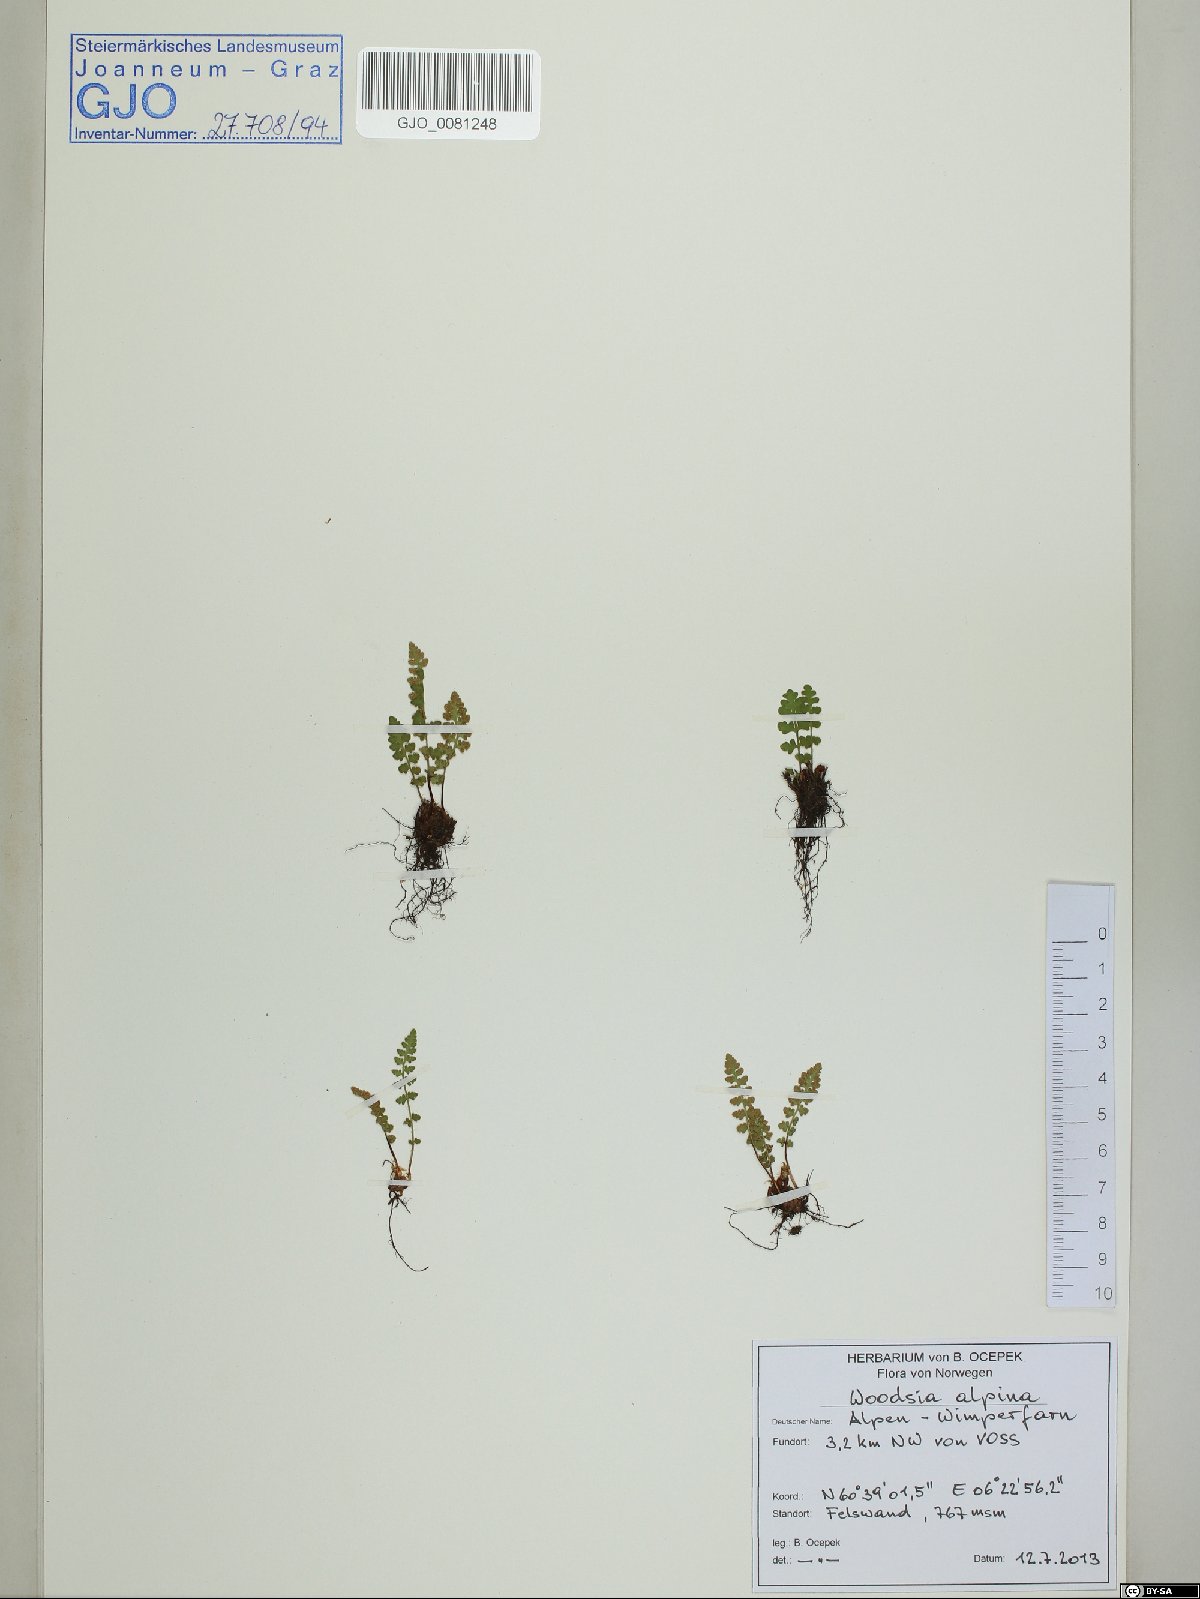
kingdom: Plantae
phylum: Tracheophyta
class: Polypodiopsida
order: Polypodiales
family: Woodsiaceae
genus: Woodsia
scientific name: Woodsia alpina
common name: Alpine woodsia
